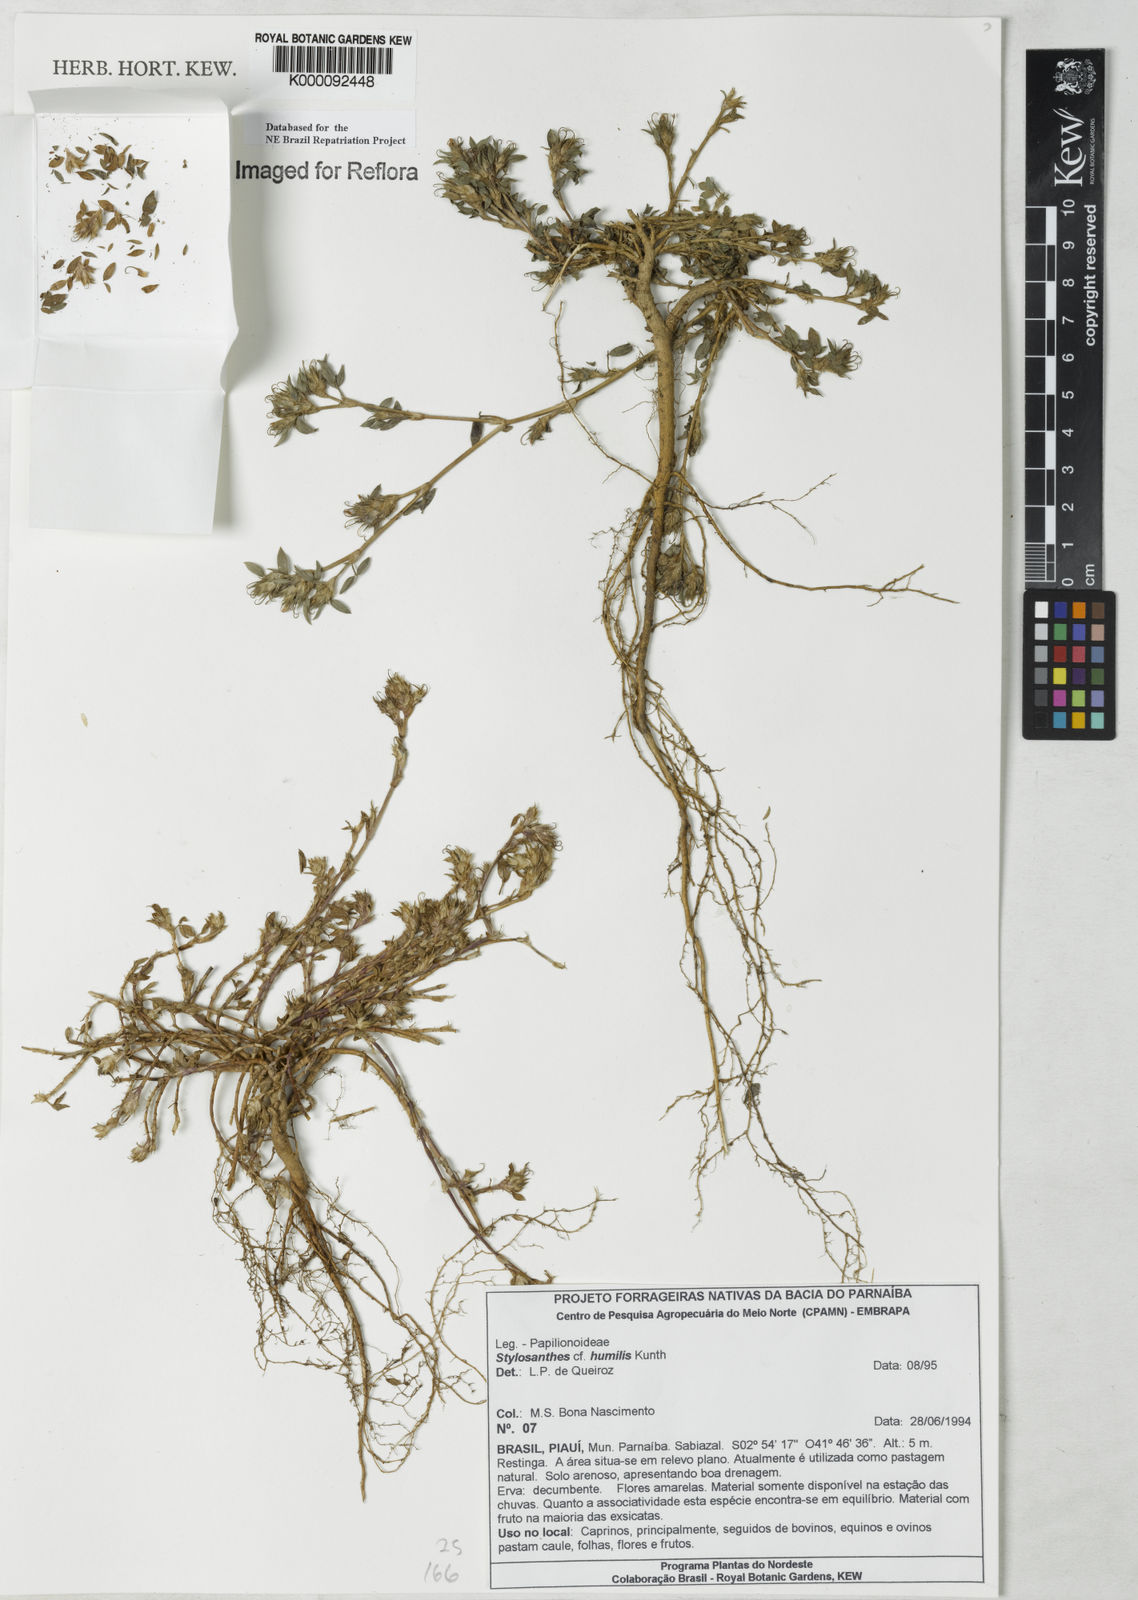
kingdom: Plantae
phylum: Tracheophyta
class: Magnoliopsida
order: Fabales
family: Fabaceae
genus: Stylosanthes
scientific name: Stylosanthes humilis
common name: Townsville stylo
